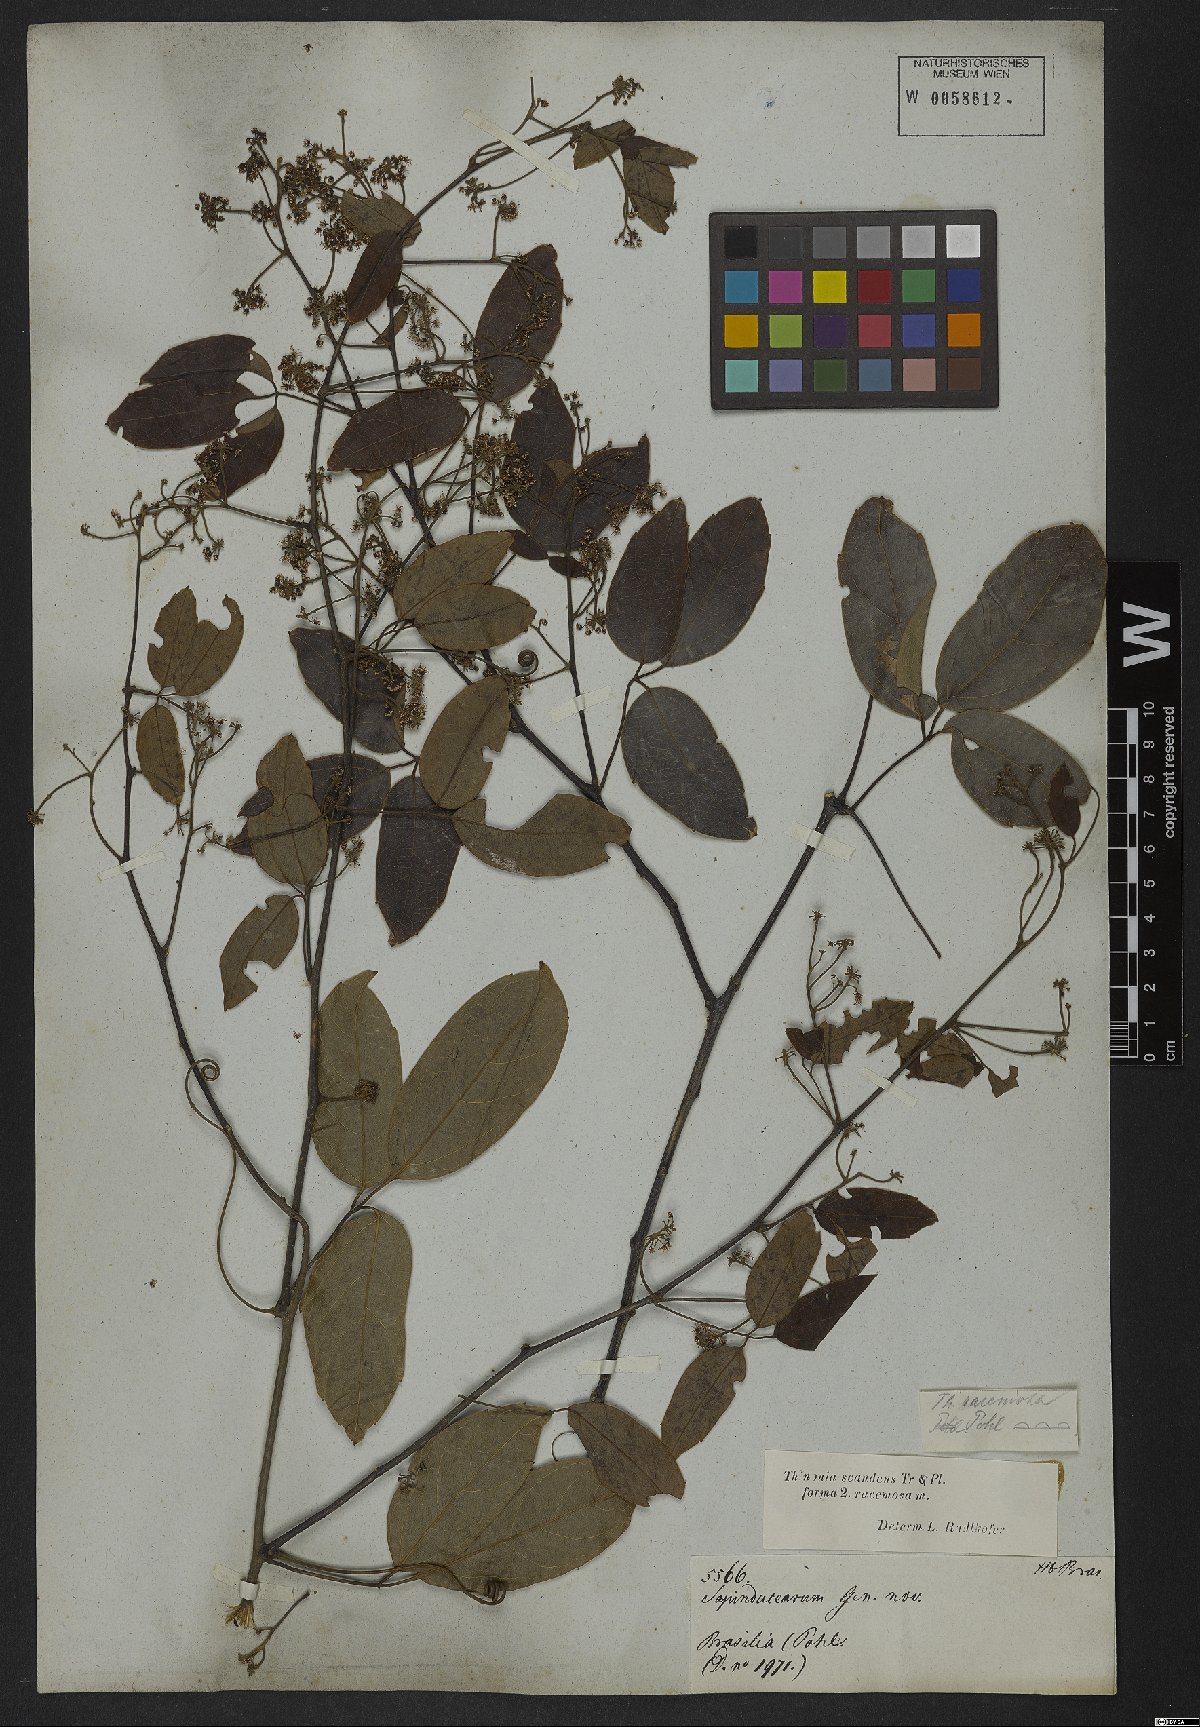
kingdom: Plantae
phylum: Tracheophyta
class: Magnoliopsida
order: Sapindales
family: Sapindaceae
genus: Thinouia
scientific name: Thinouia scandens
